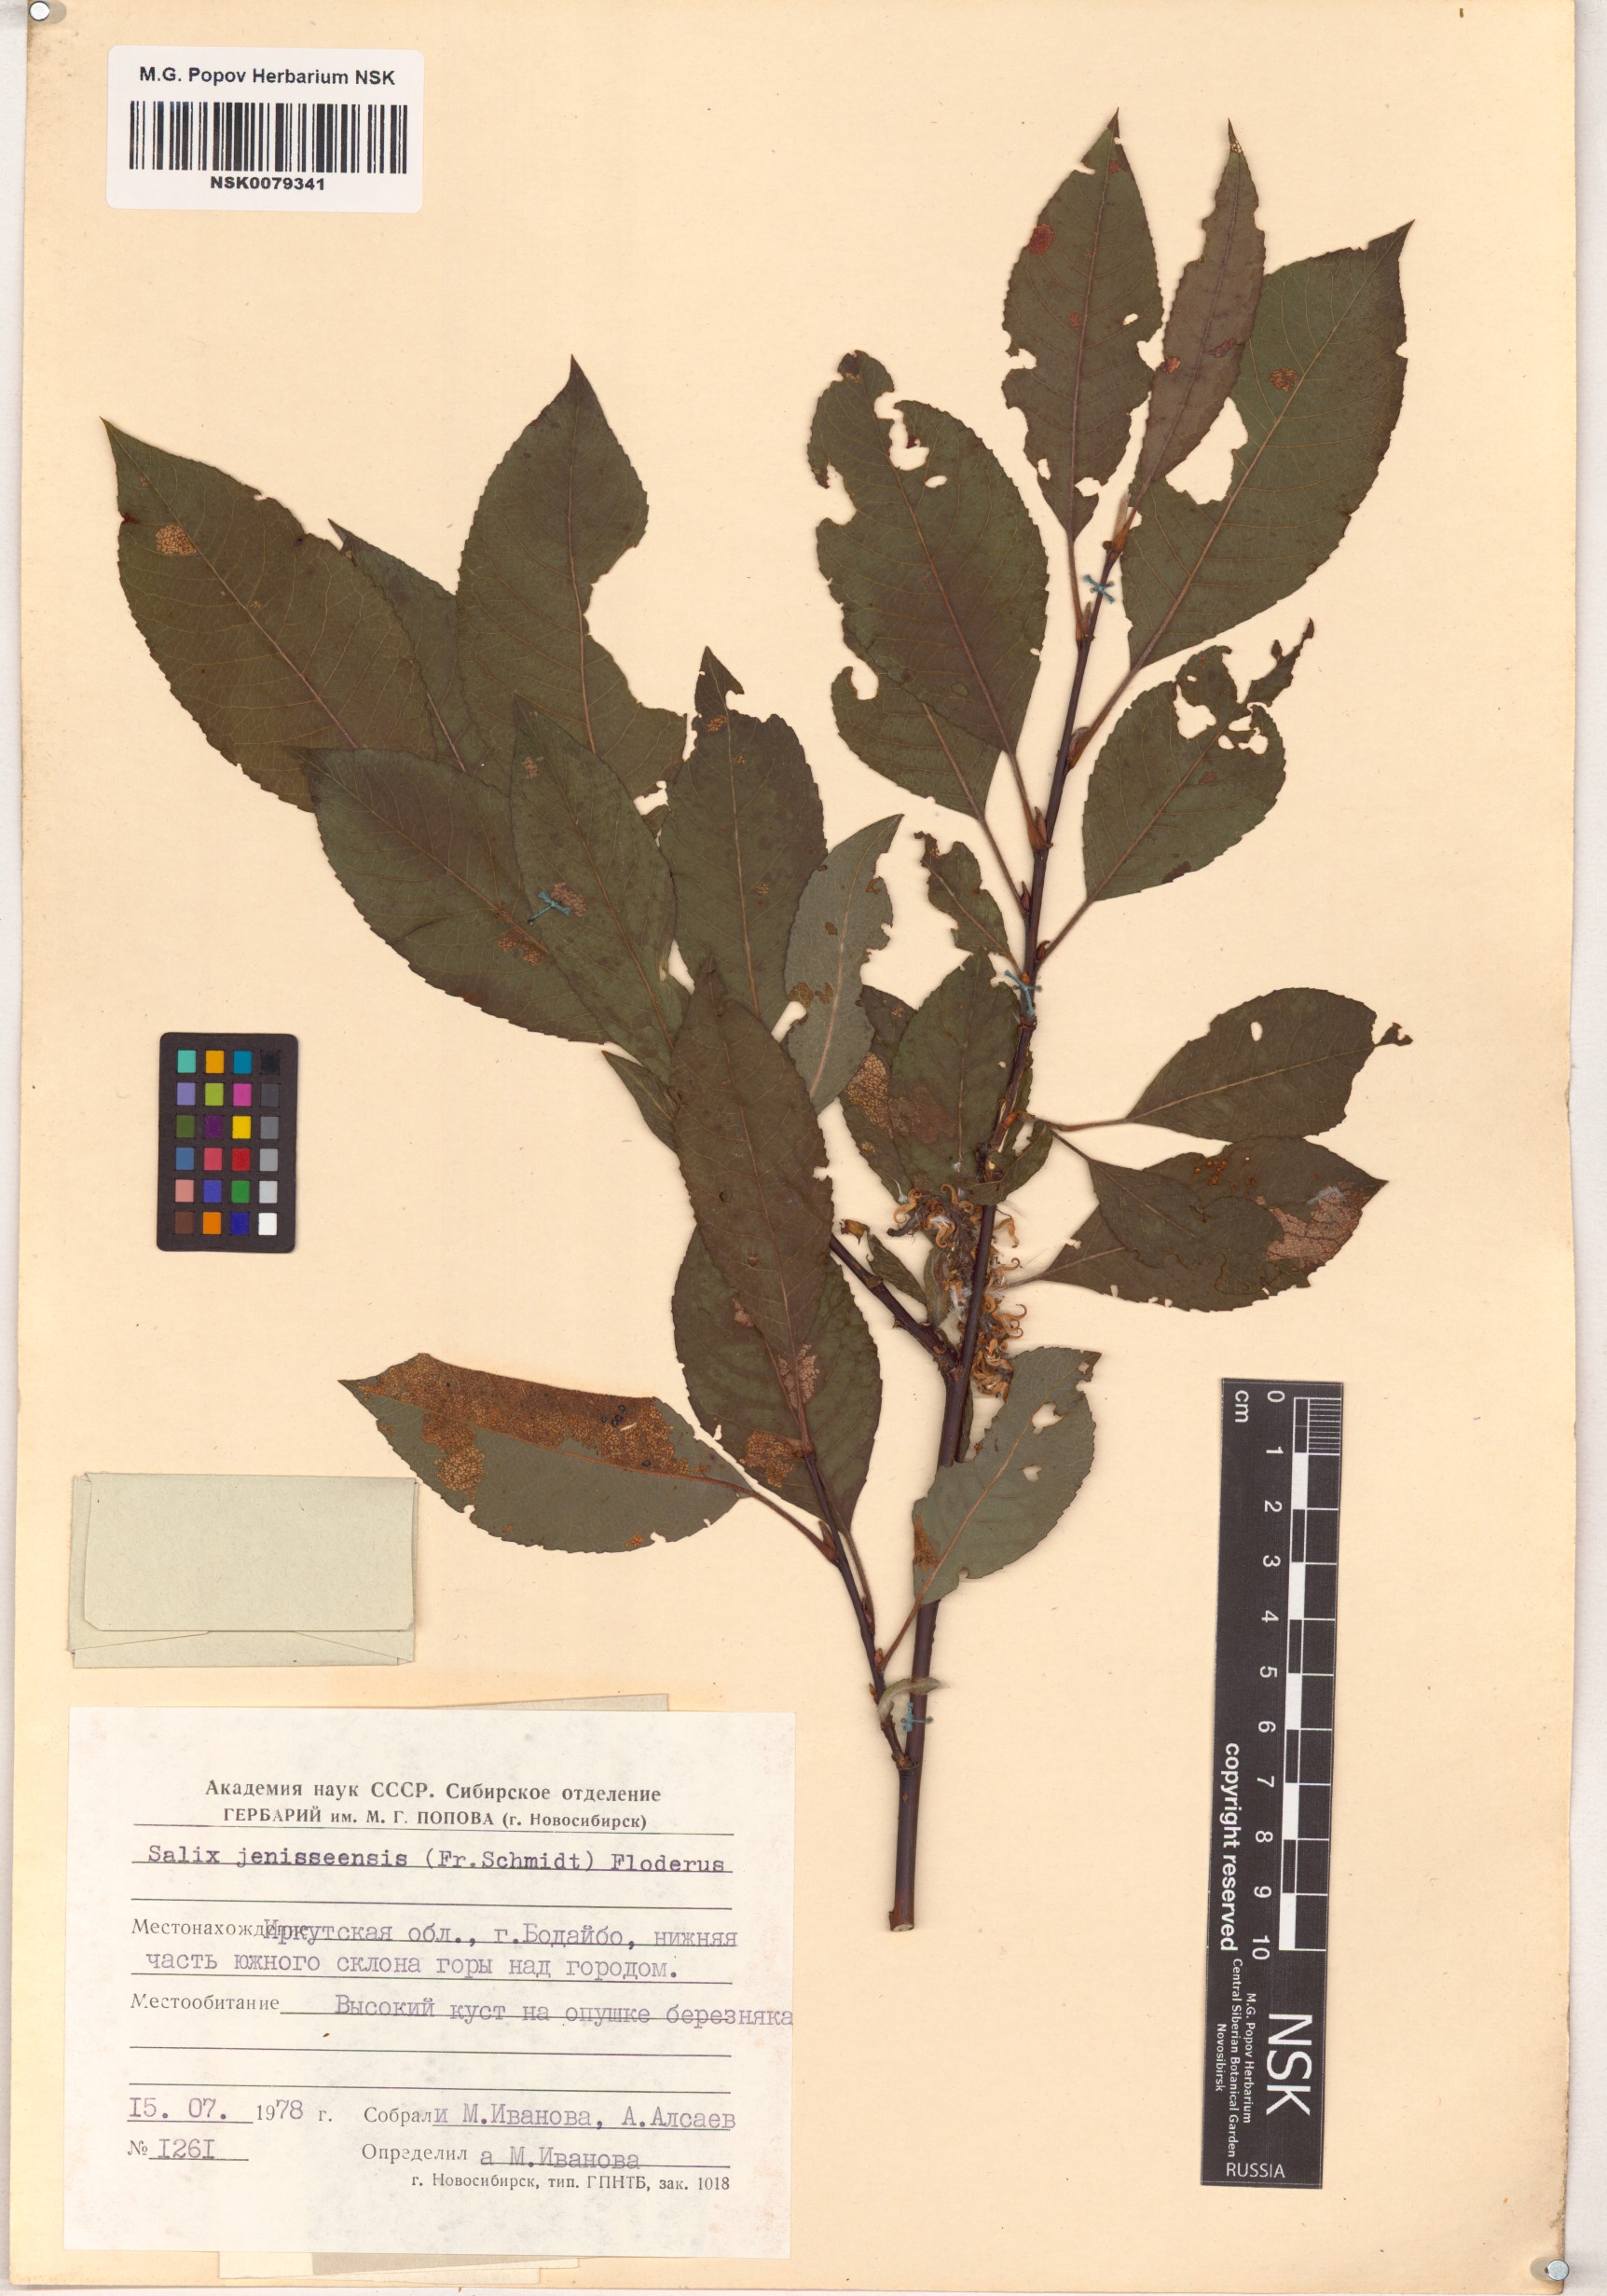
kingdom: Plantae
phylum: Tracheophyta
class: Magnoliopsida
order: Malpighiales
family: Salicaceae
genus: Salix
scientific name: Salix jenisseensis
